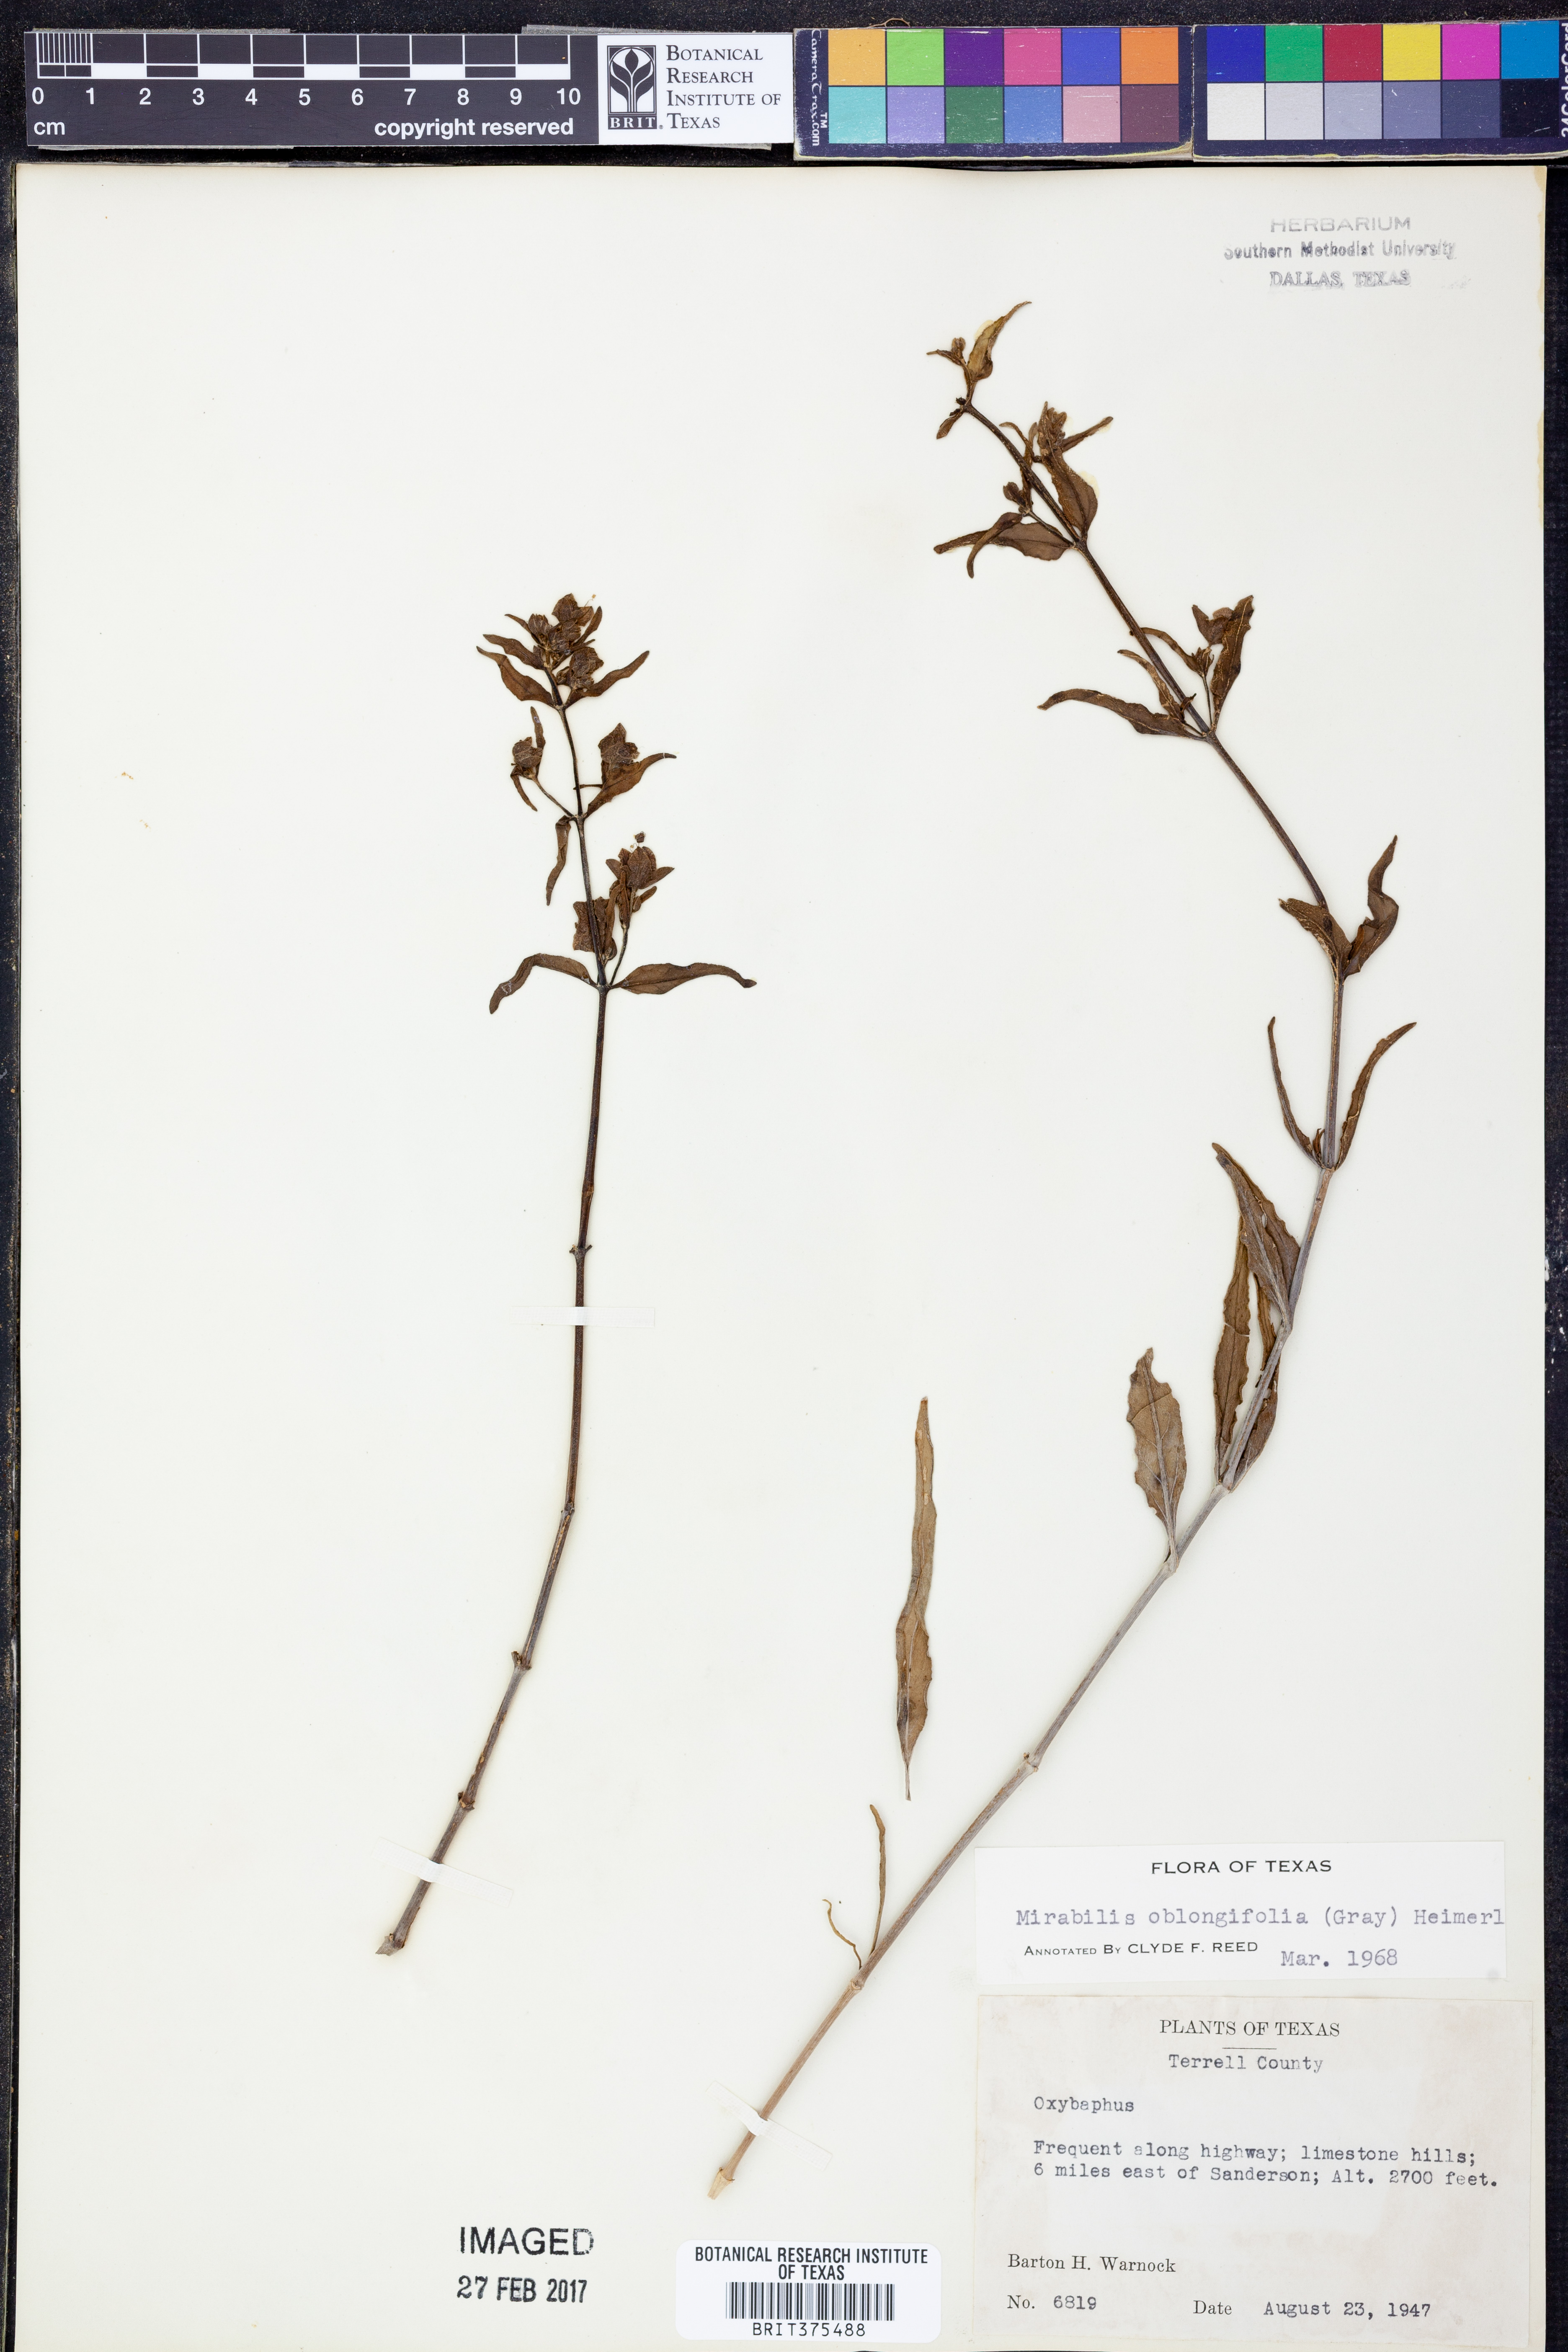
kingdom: Plantae
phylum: Tracheophyta
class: Magnoliopsida
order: Caryophyllales
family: Nyctaginaceae
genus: Mirabilis
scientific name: Mirabilis albida
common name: Hairy four-o'clock
